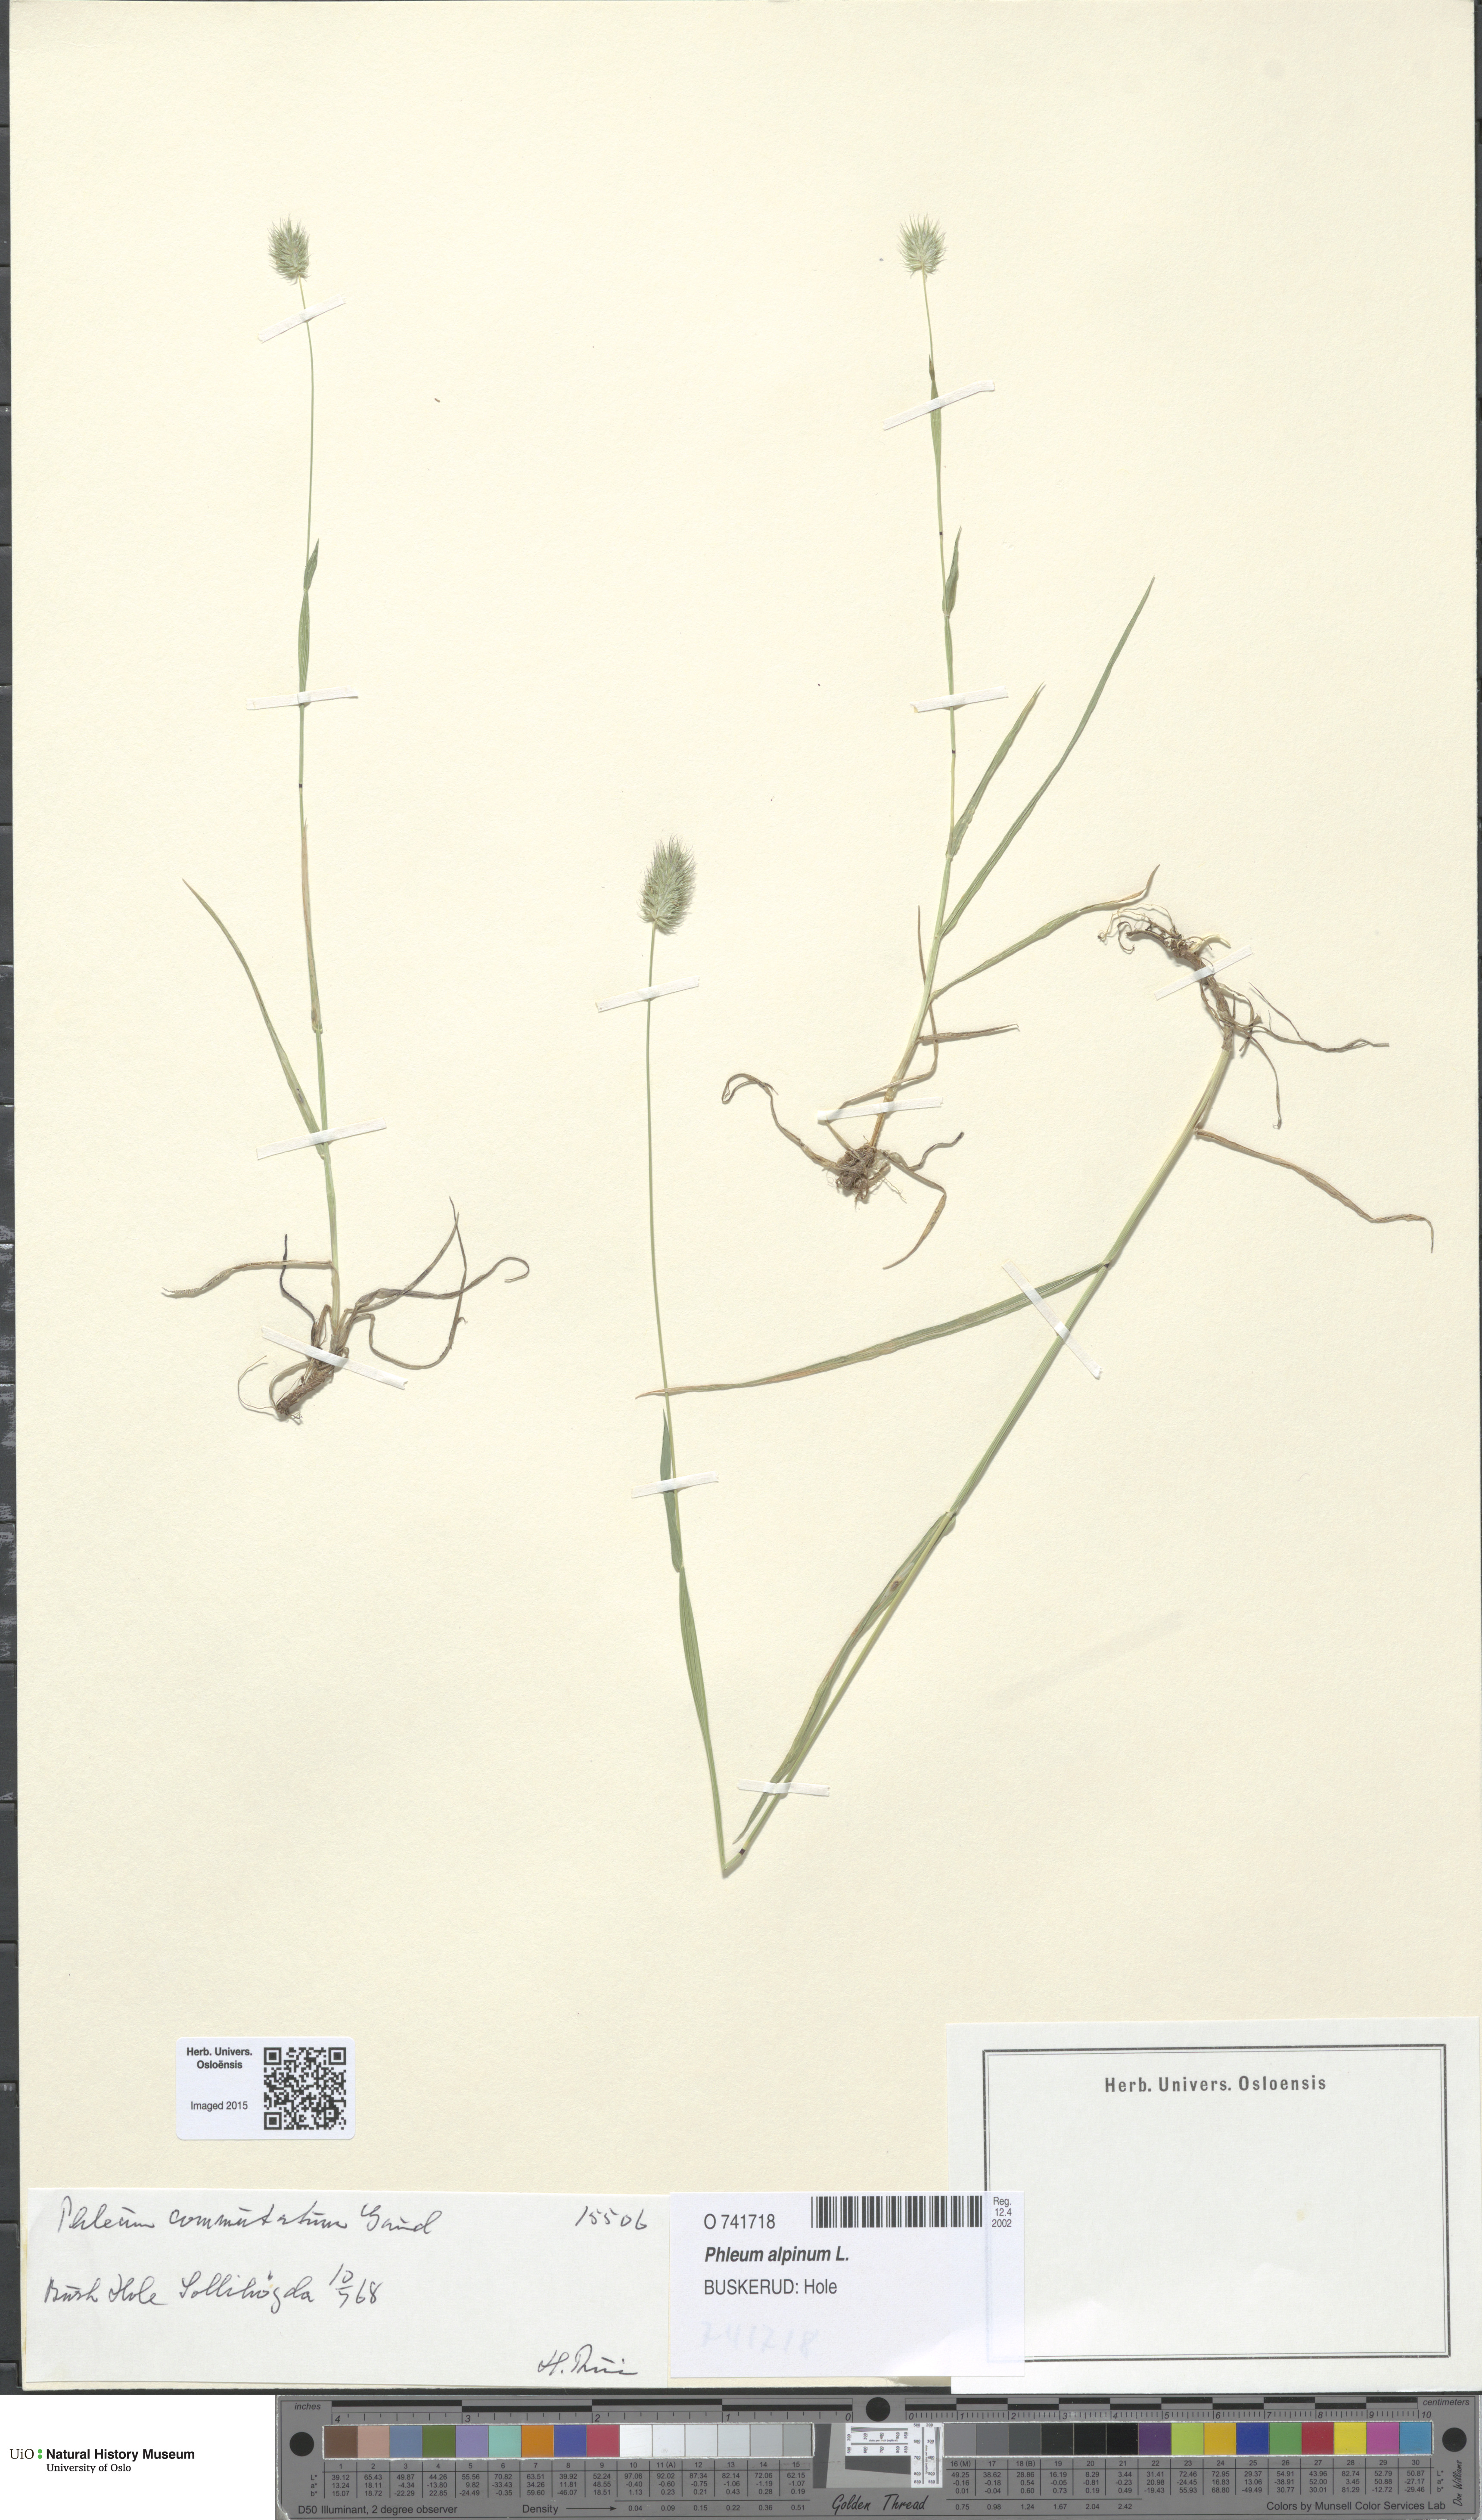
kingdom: Plantae
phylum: Tracheophyta
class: Liliopsida
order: Poales
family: Poaceae
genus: Phleum
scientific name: Phleum alpinum
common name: Alpine cat's-tail
